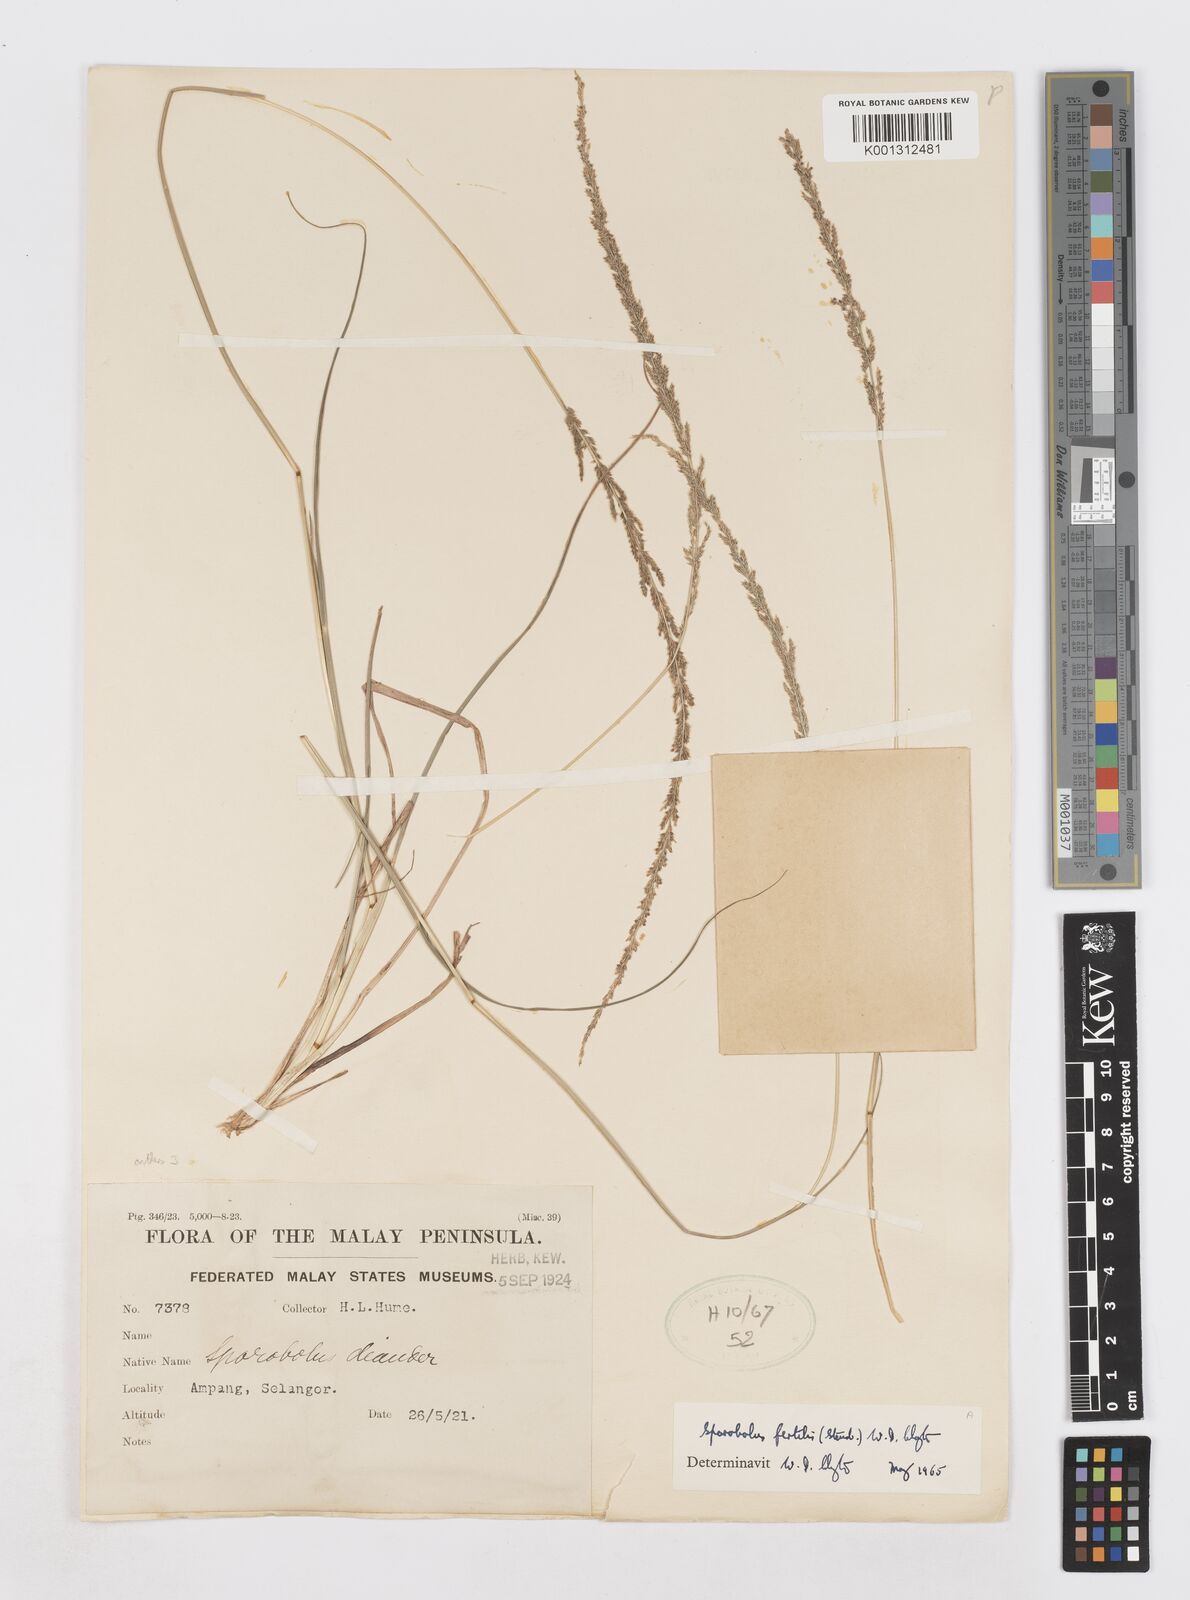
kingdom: Plantae
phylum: Tracheophyta
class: Liliopsida
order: Poales
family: Poaceae
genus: Sporobolus
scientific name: Sporobolus fertilis
